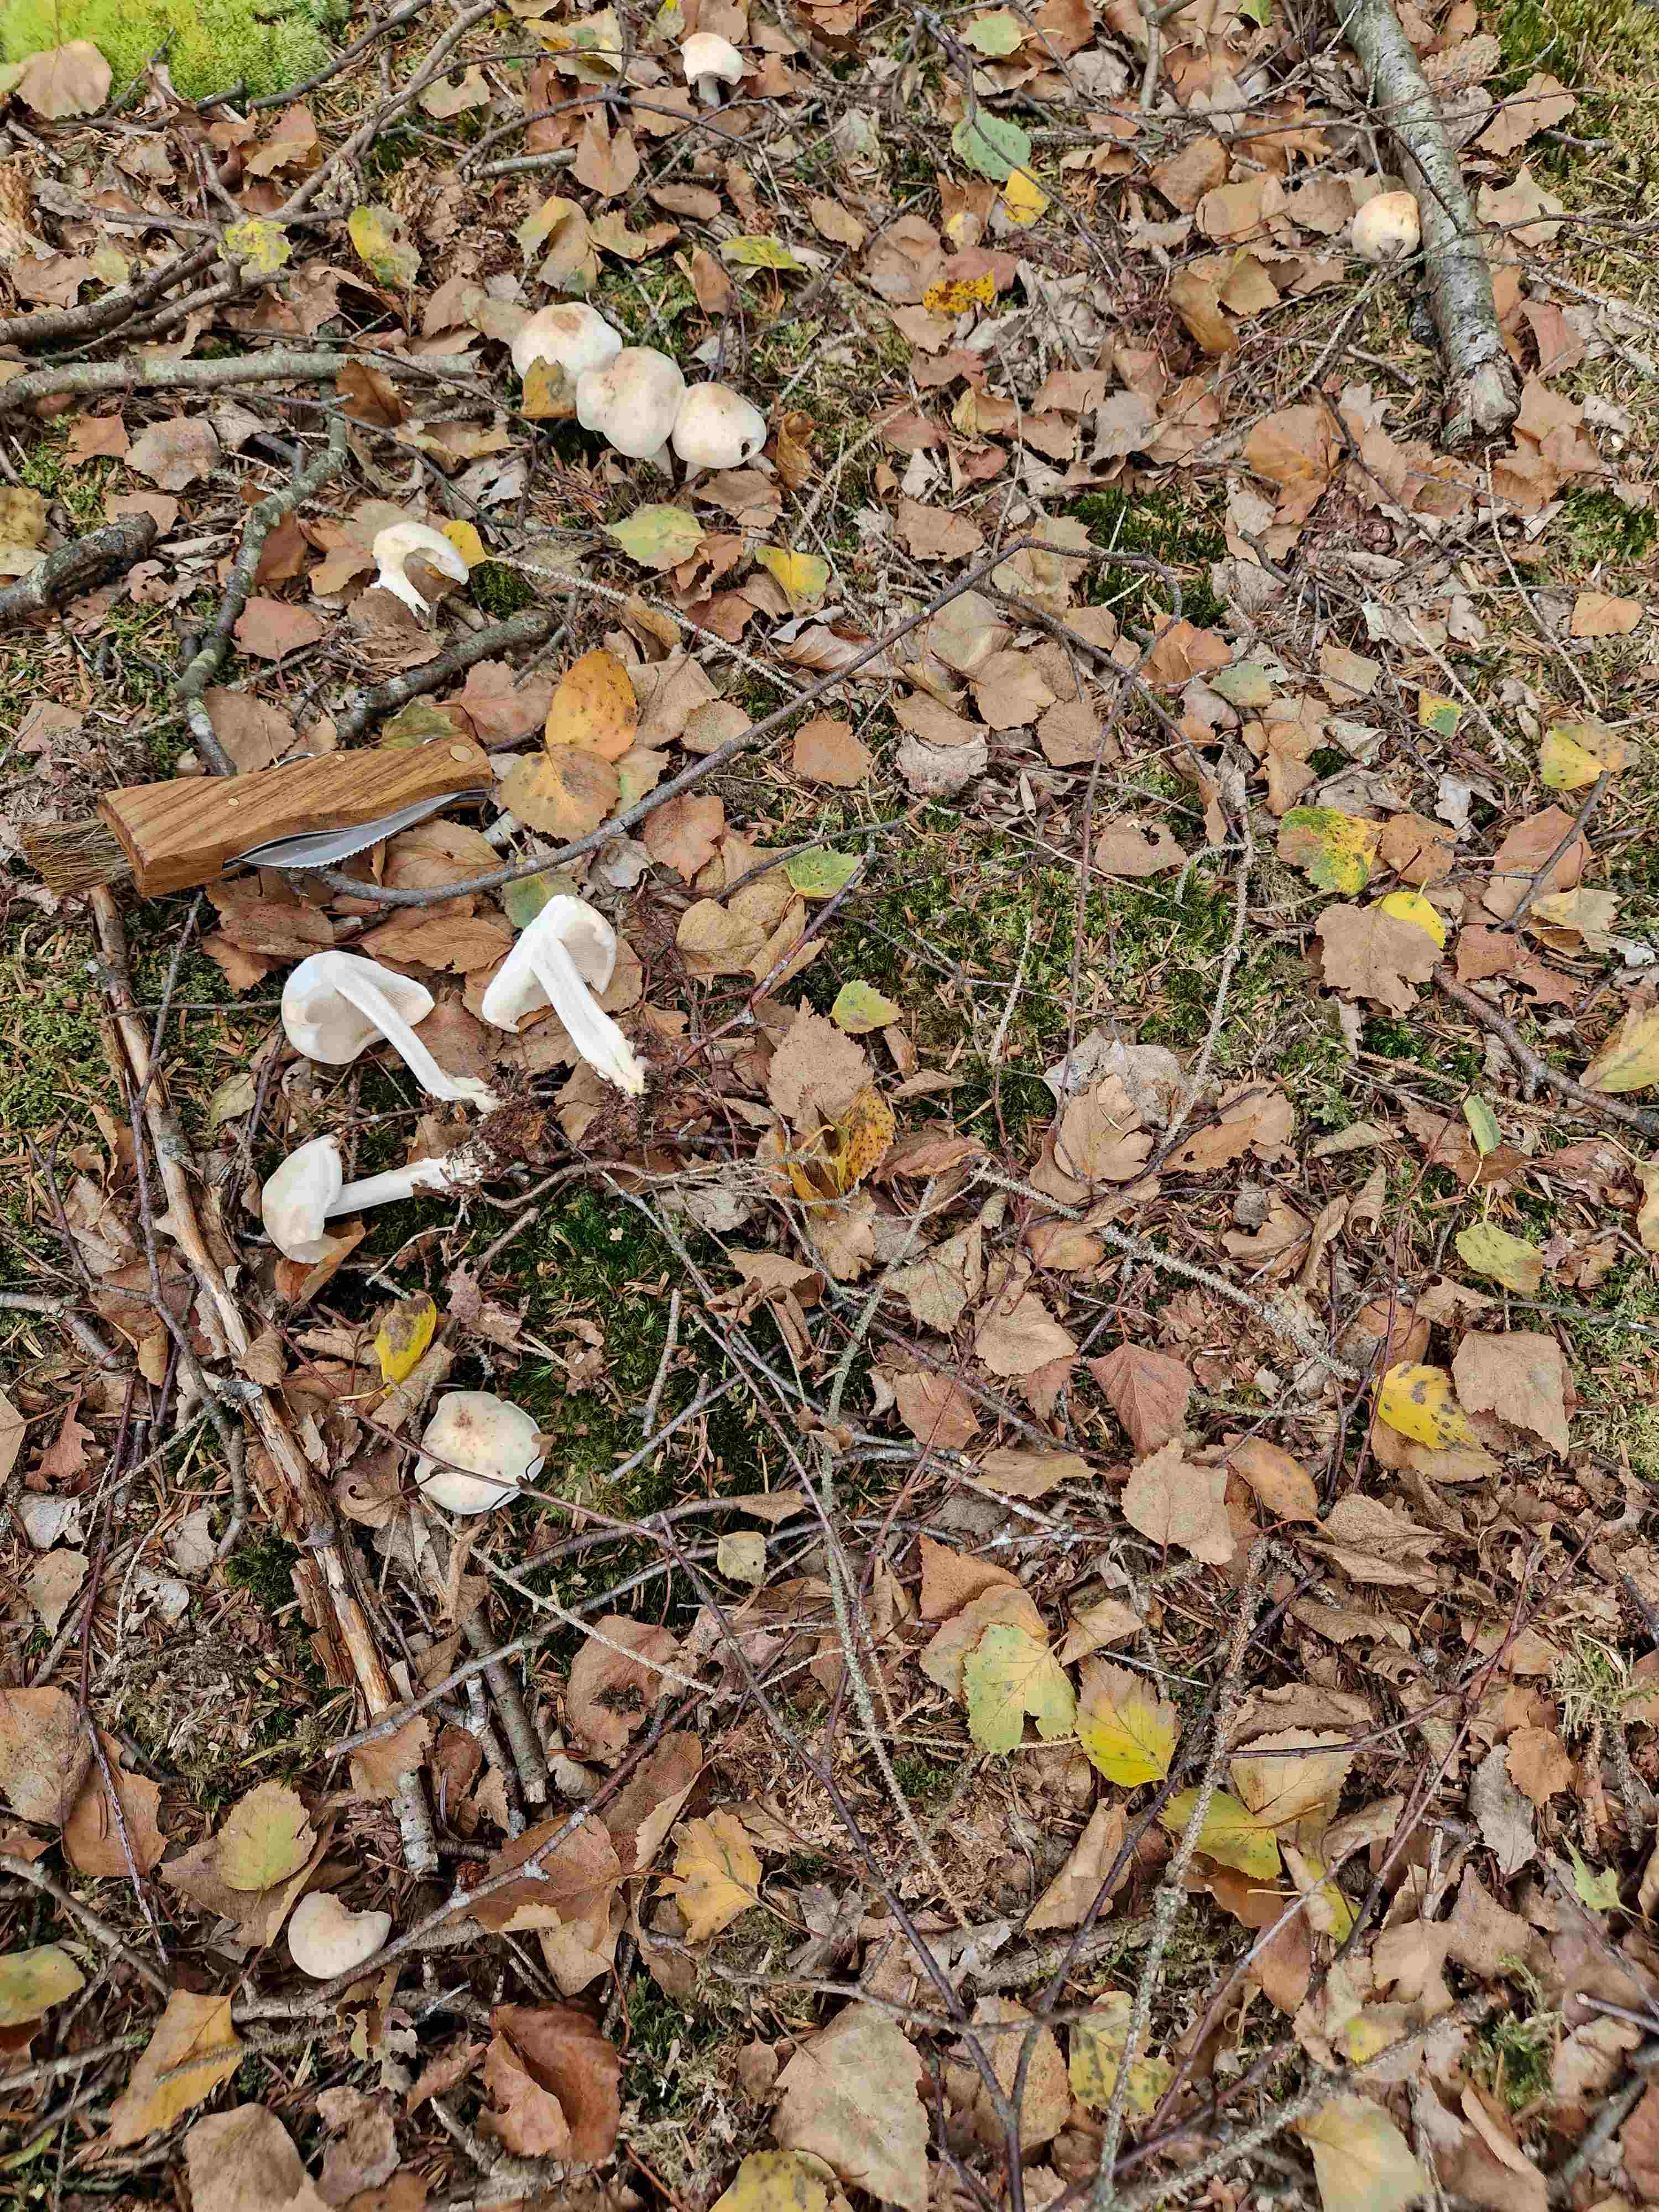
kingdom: Fungi
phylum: Basidiomycota
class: Agaricomycetes
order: Agaricales
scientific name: Agaricales
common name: champignonordenen
